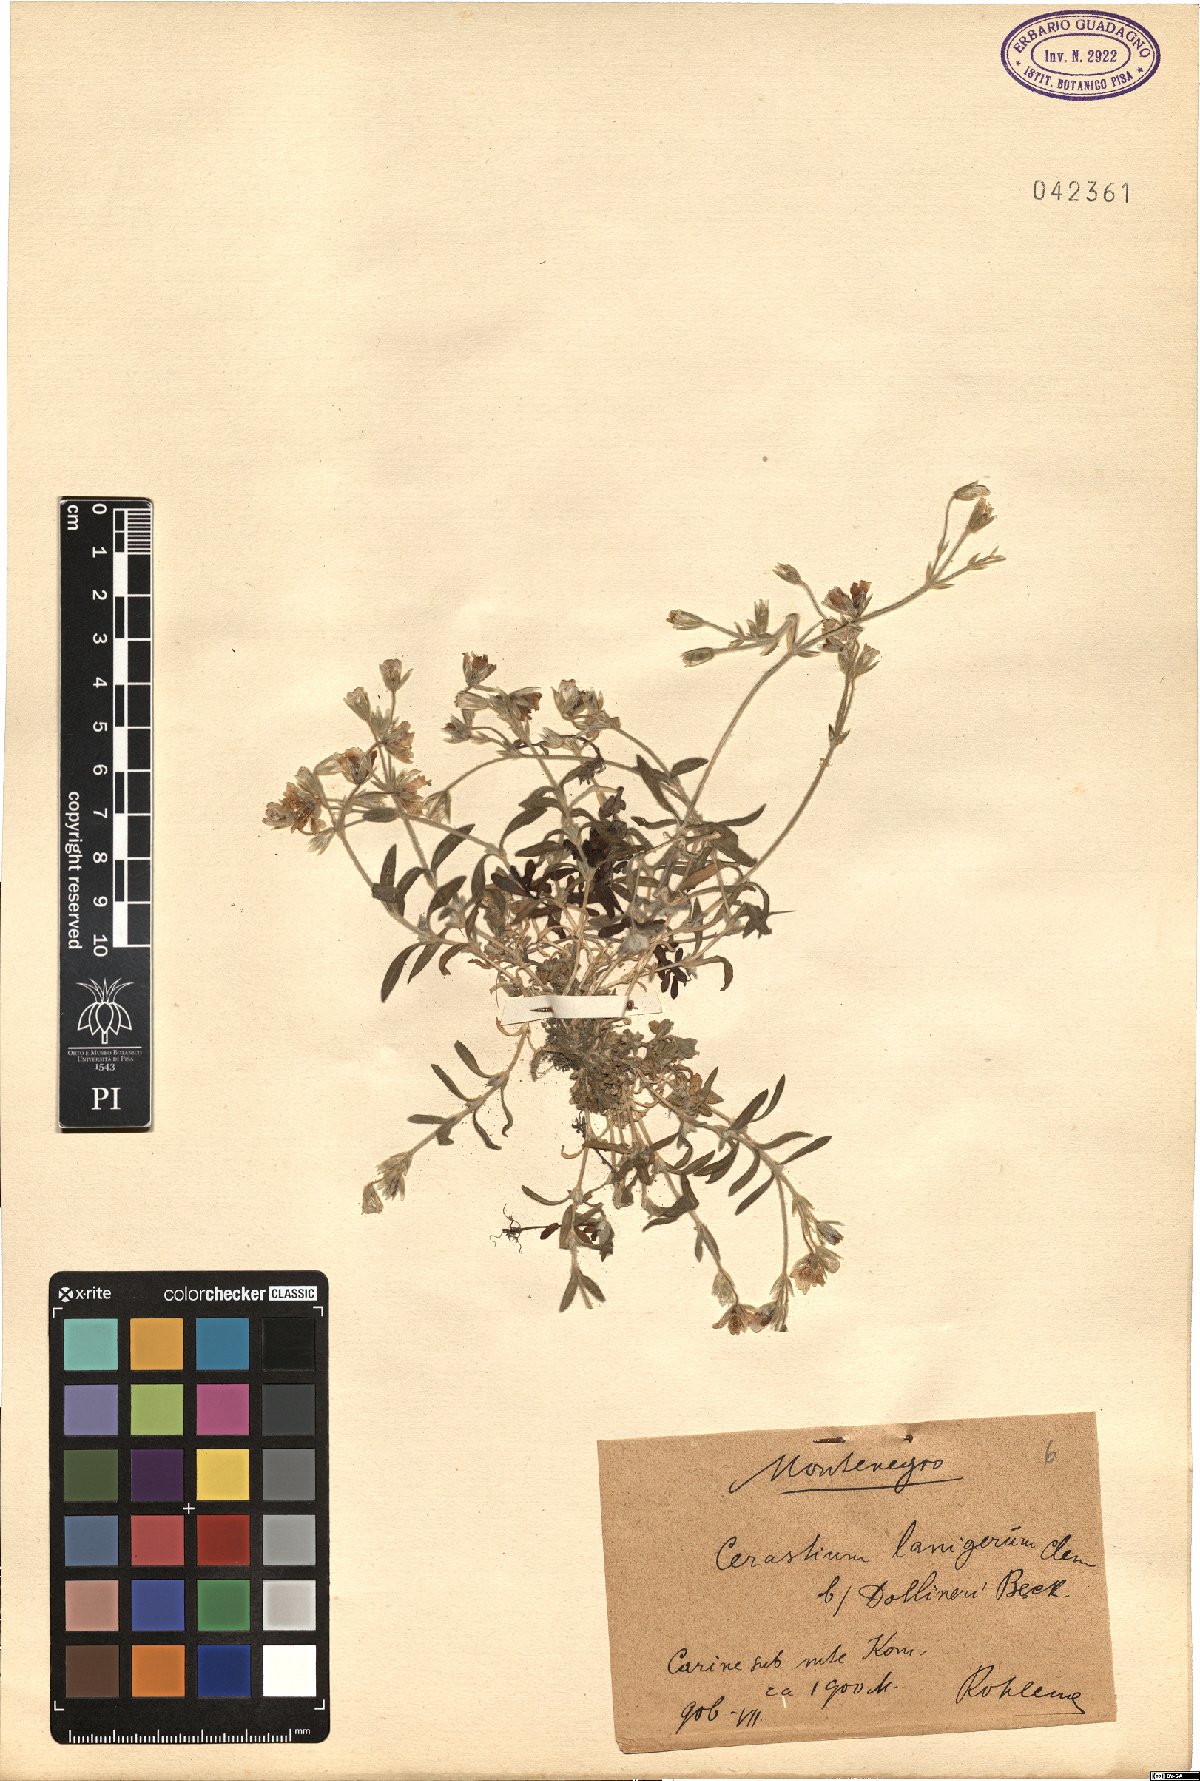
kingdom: Plantae
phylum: Tracheophyta
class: Magnoliopsida
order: Caryophyllales
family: Caryophyllaceae
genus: Cerastium
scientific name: Cerastium decalvans
